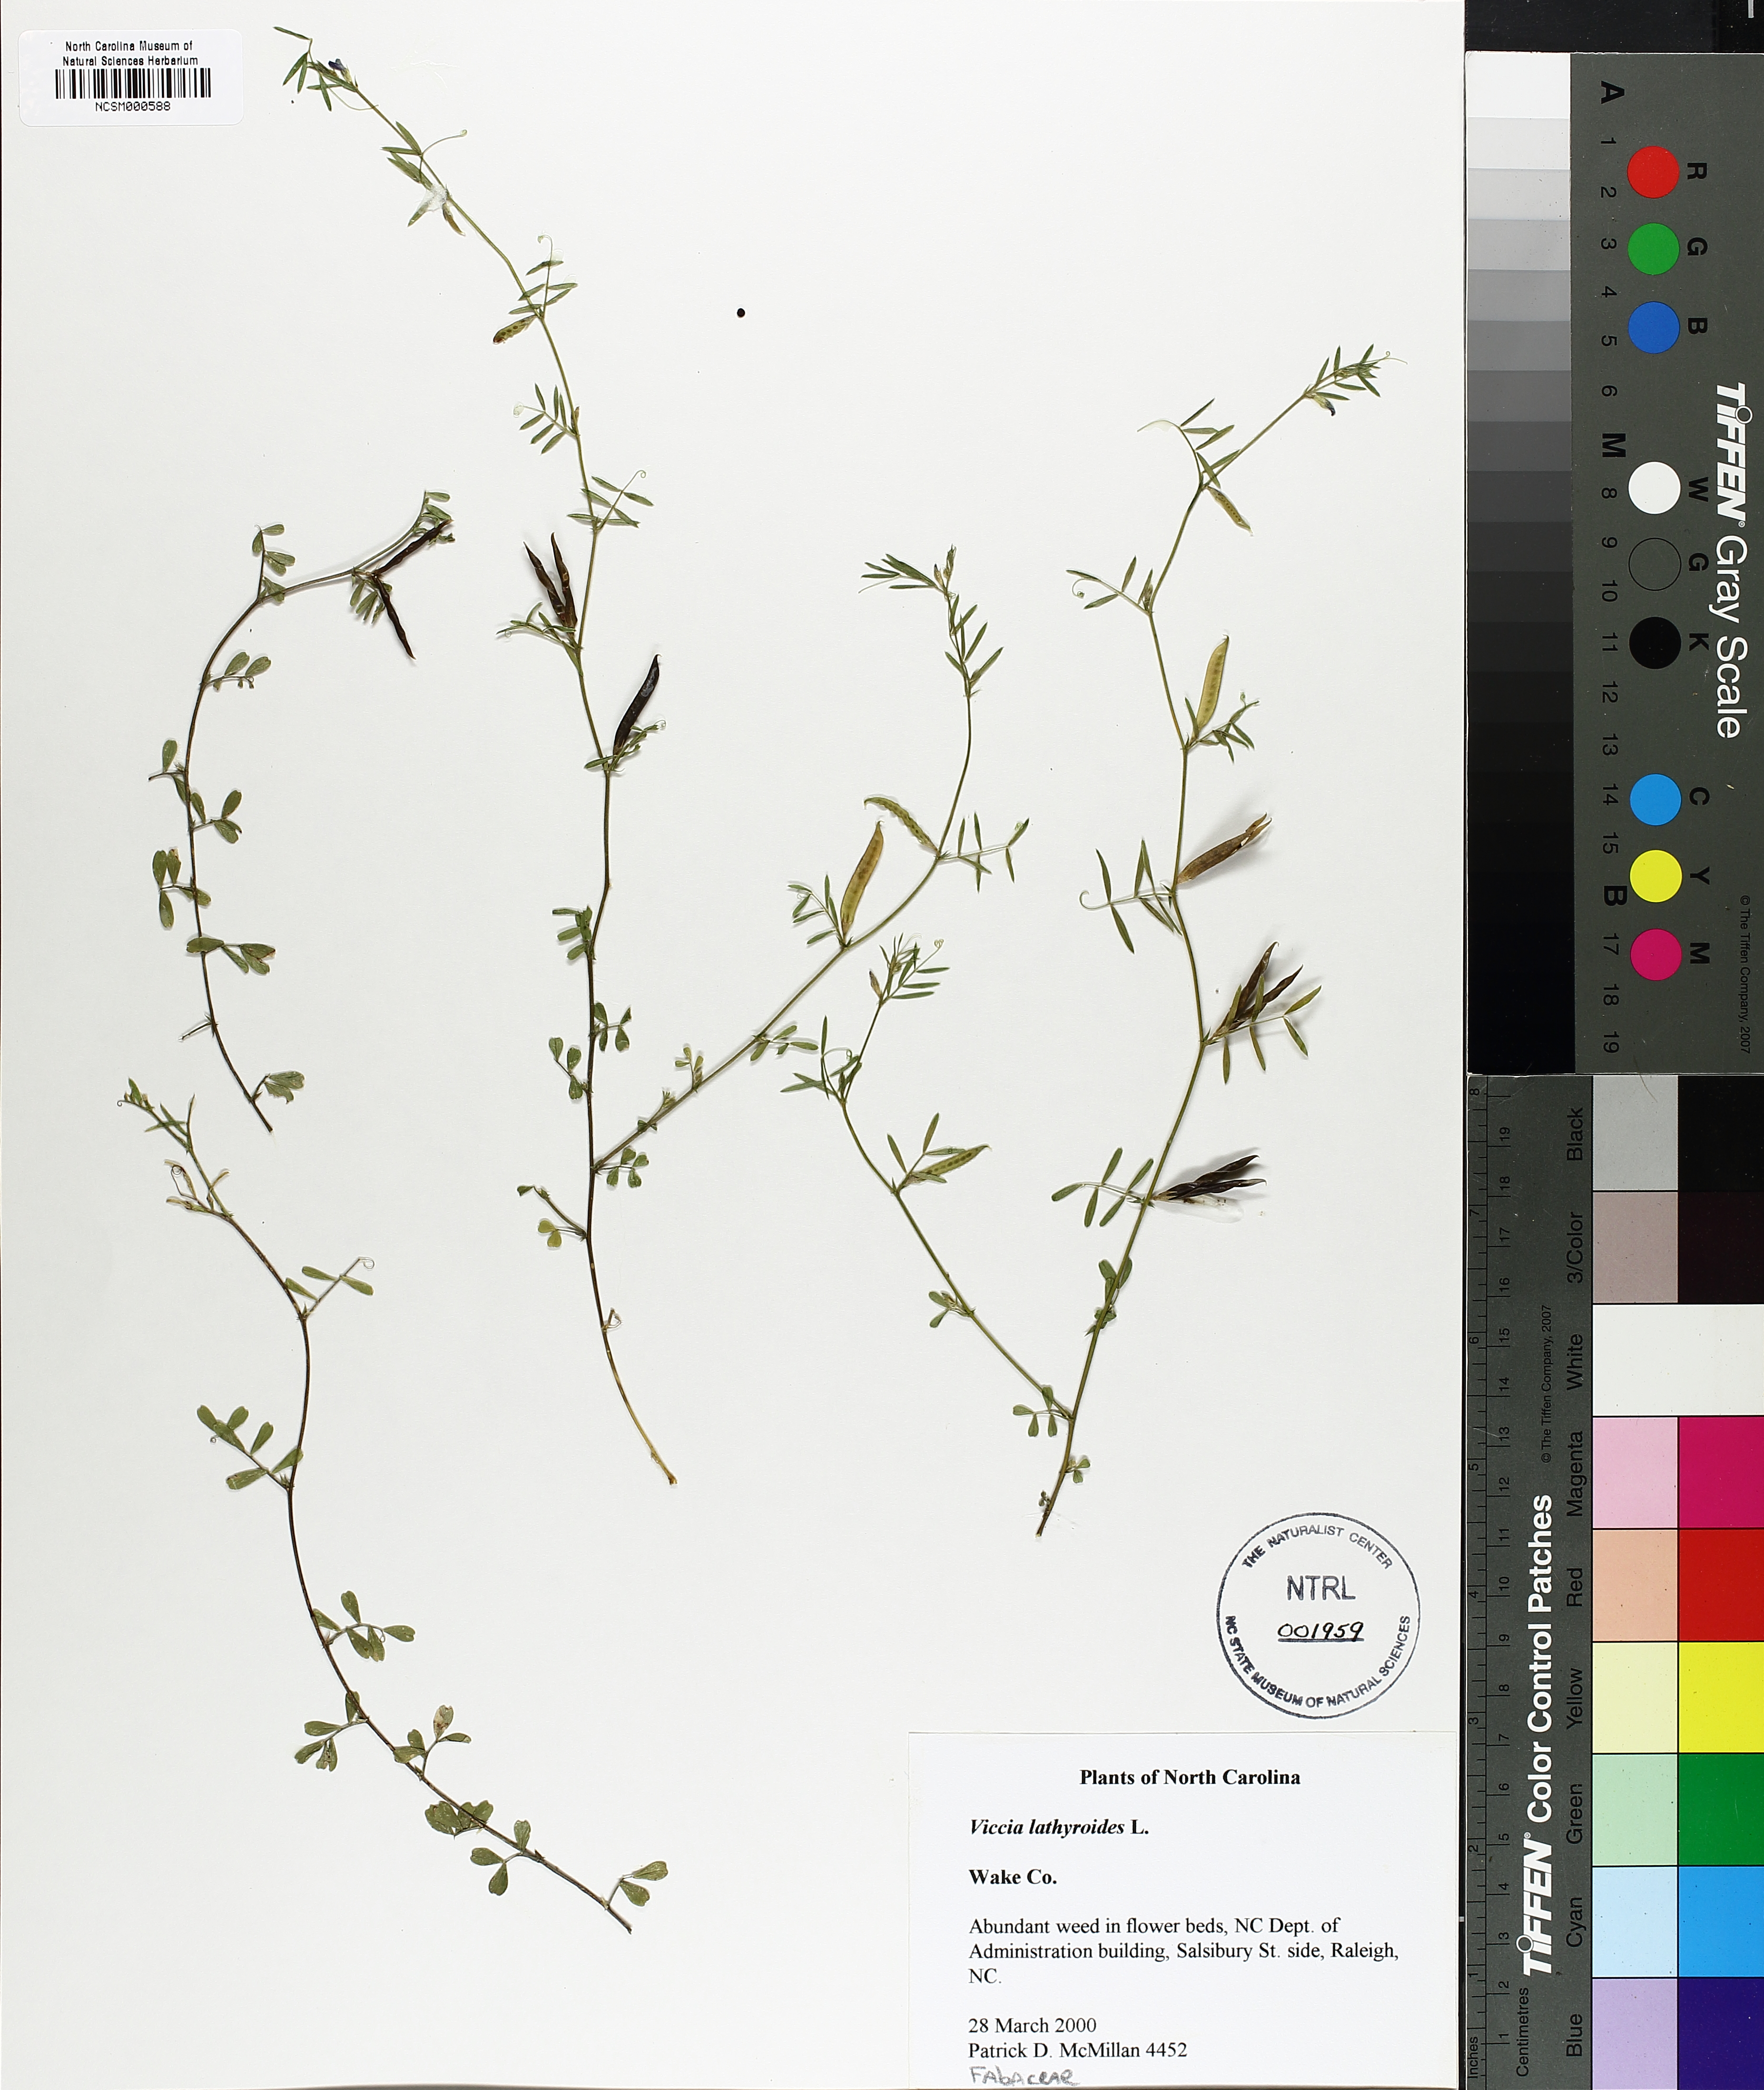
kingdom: Plantae
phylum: Tracheophyta
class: Magnoliopsida
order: Fabales
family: Fabaceae
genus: Vicia
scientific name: Vicia lathyroides
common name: Spring vetch
